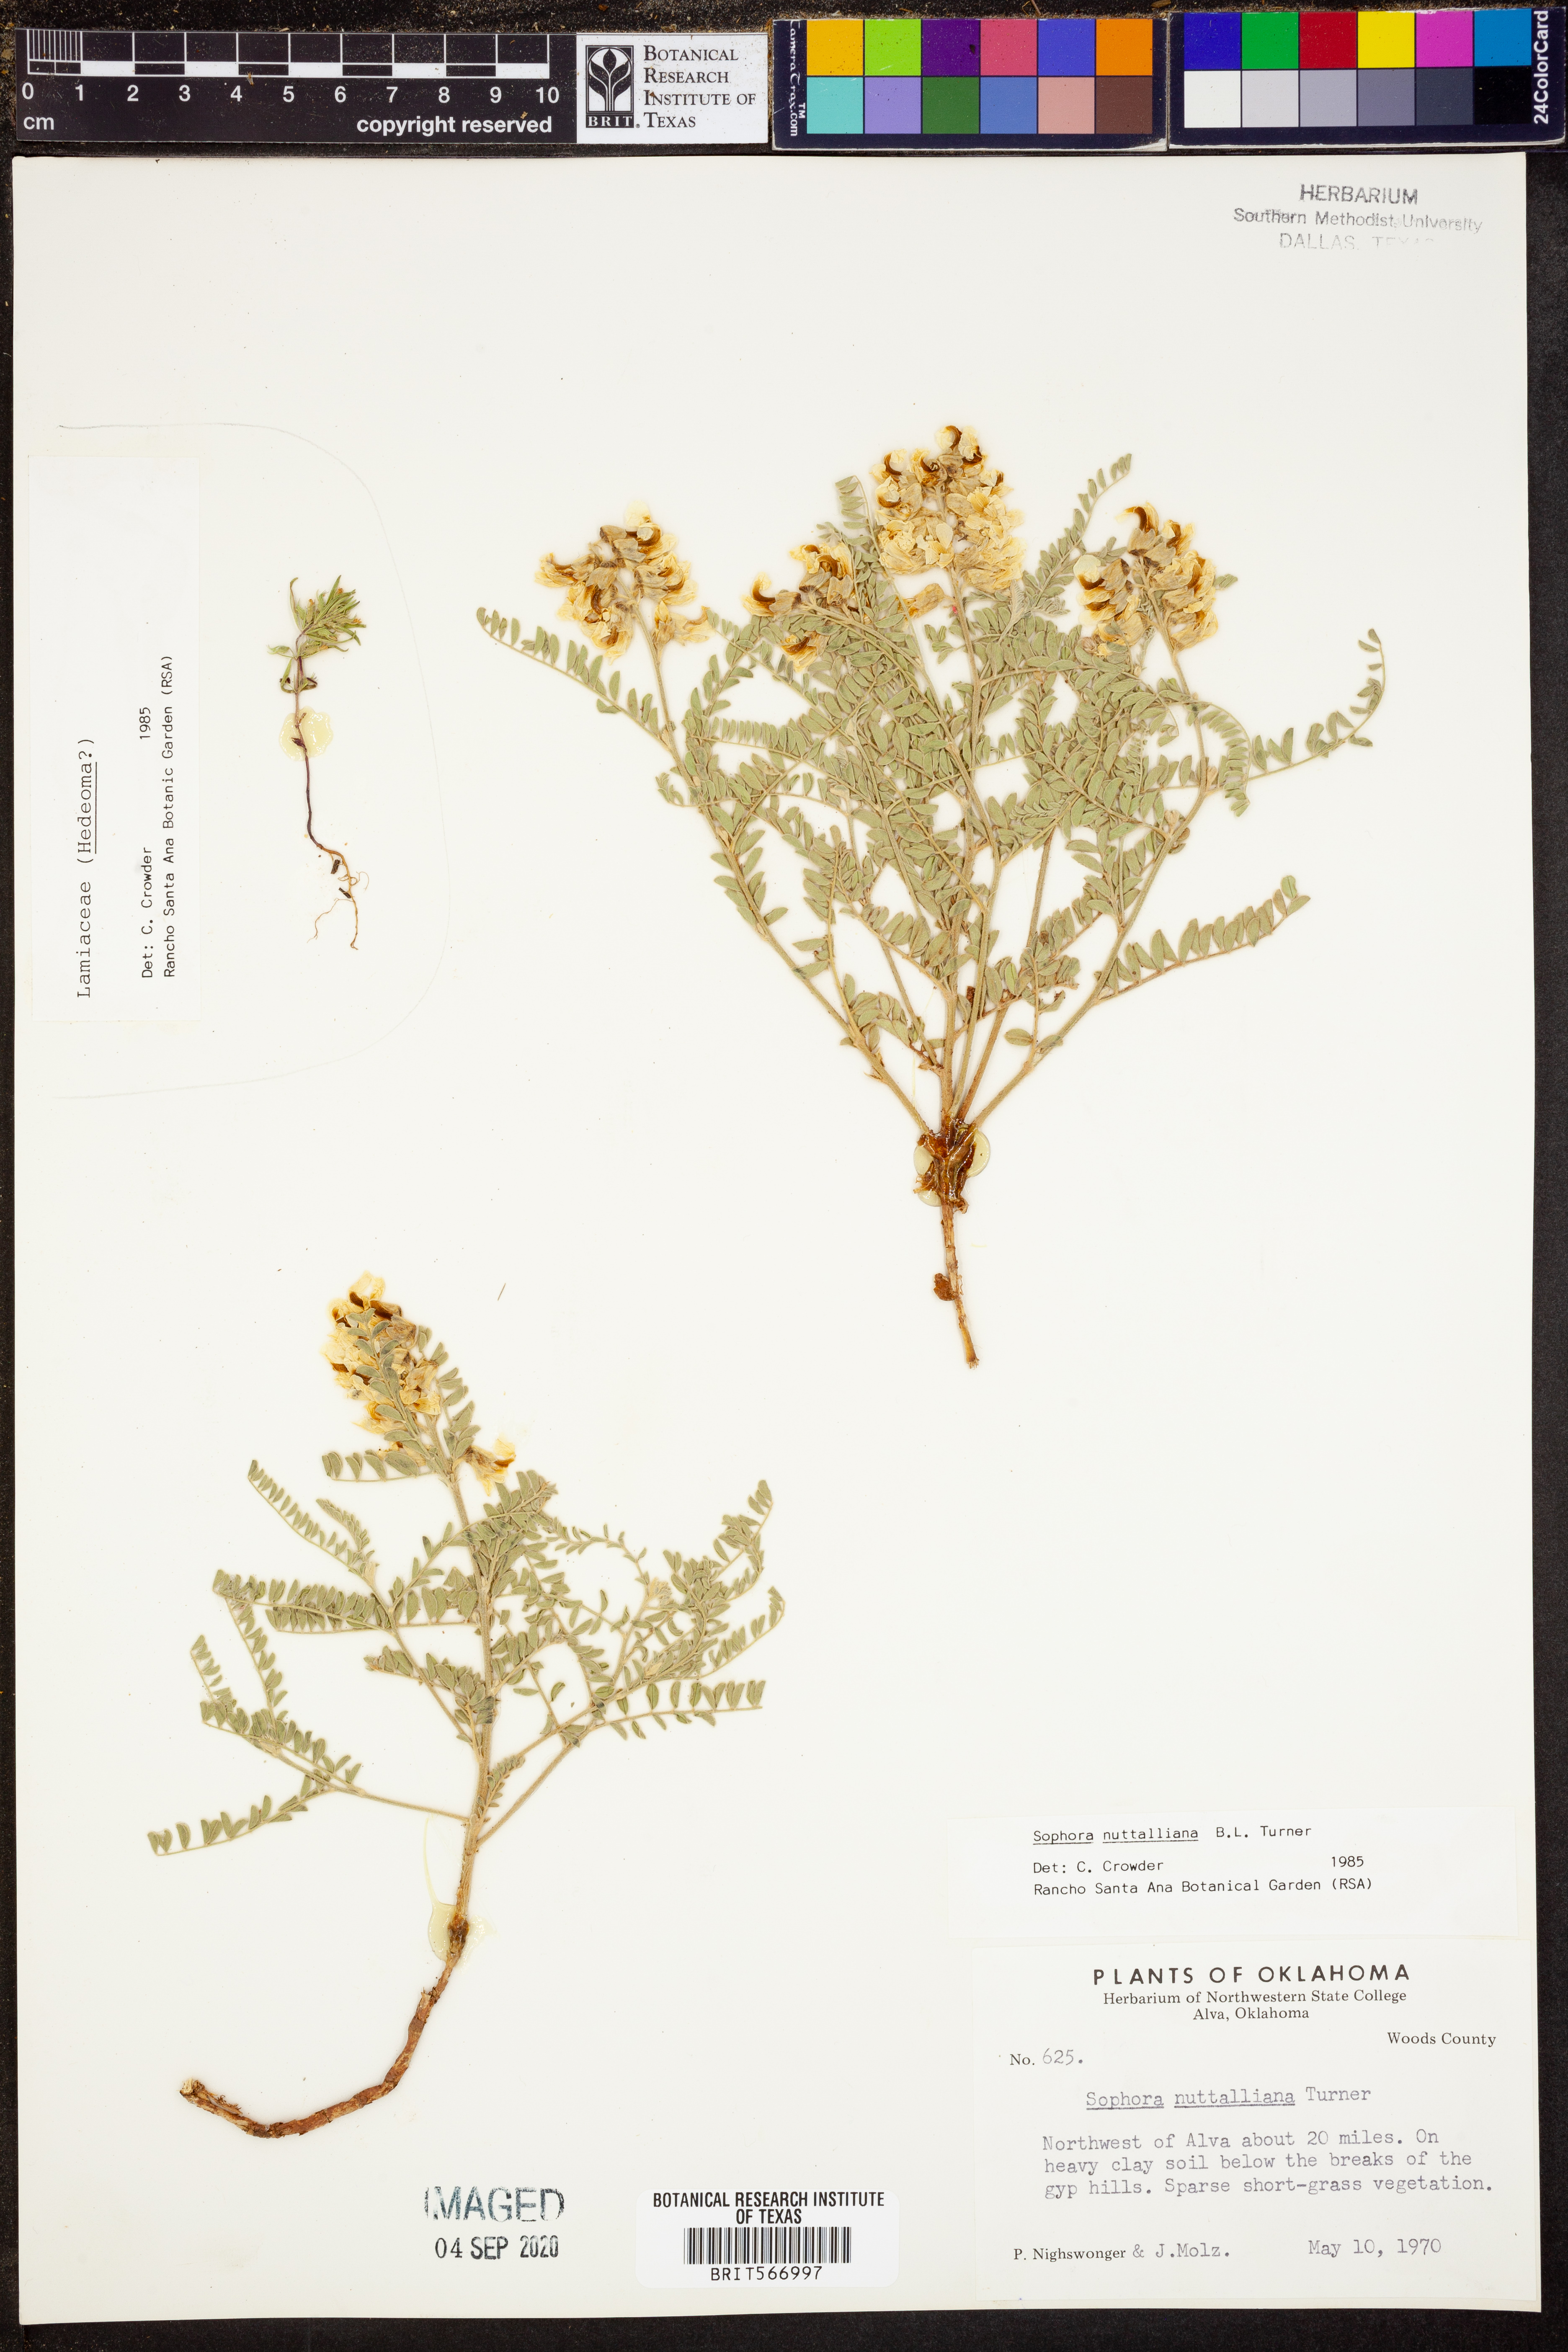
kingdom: Plantae
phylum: Tracheophyta
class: Magnoliopsida
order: Fabales
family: Fabaceae
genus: Sophora
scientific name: Sophora nuttalliana
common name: Silky sophora
